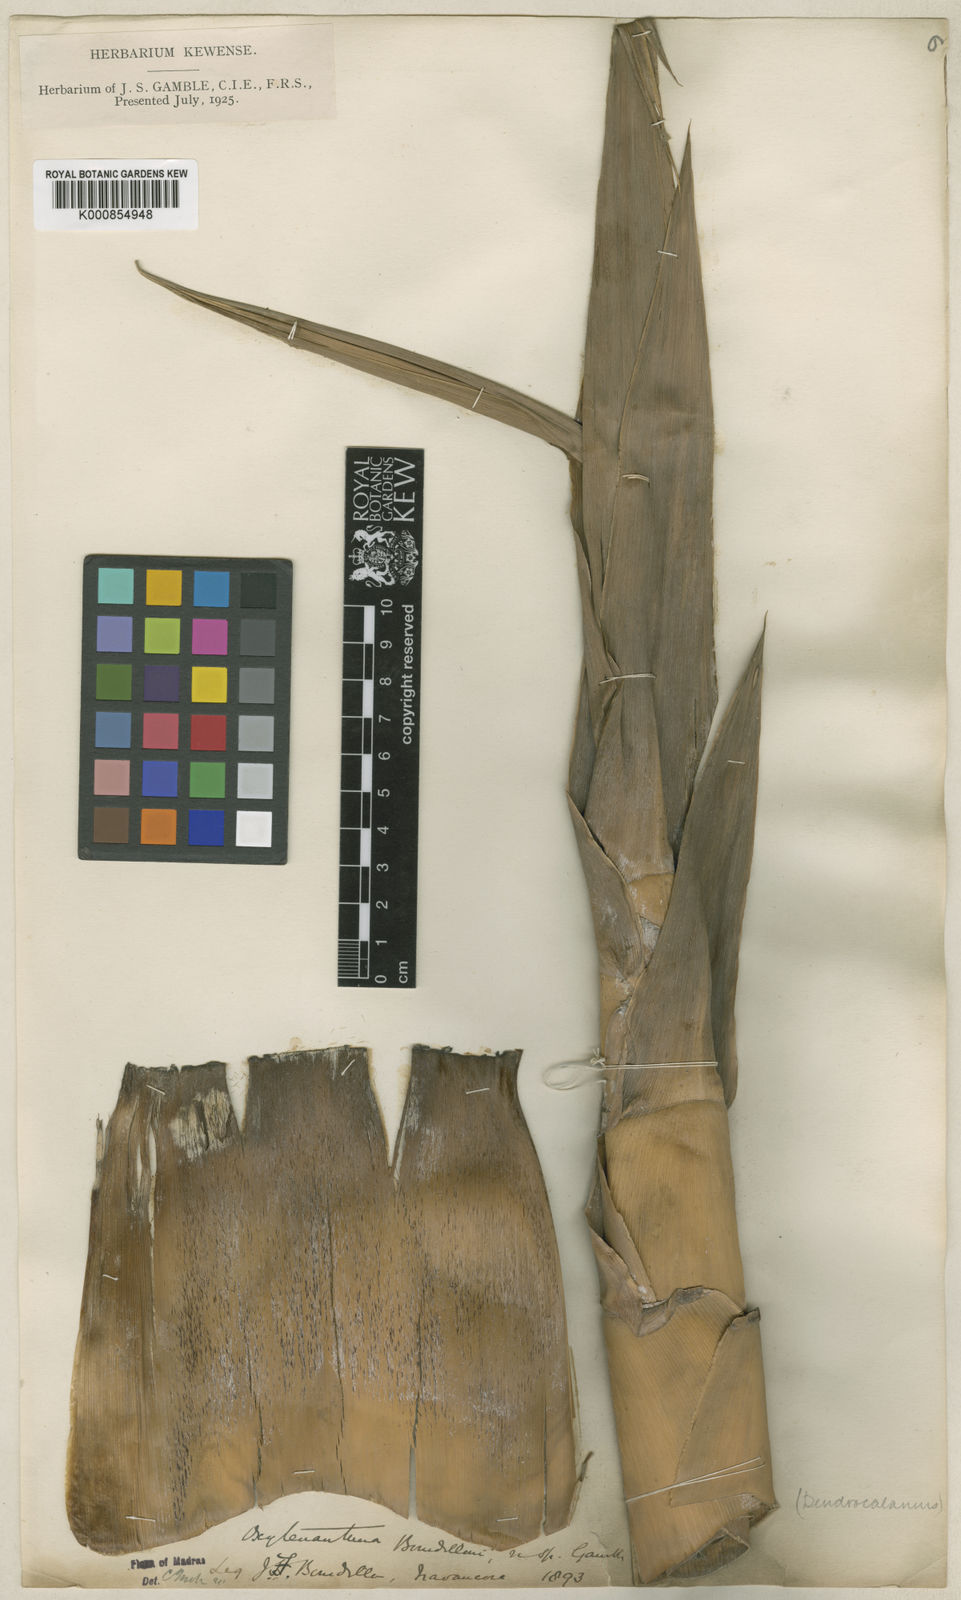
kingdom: Plantae
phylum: Tracheophyta
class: Liliopsida
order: Poales
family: Poaceae
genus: Dendrocalamus
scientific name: Dendrocalamus
